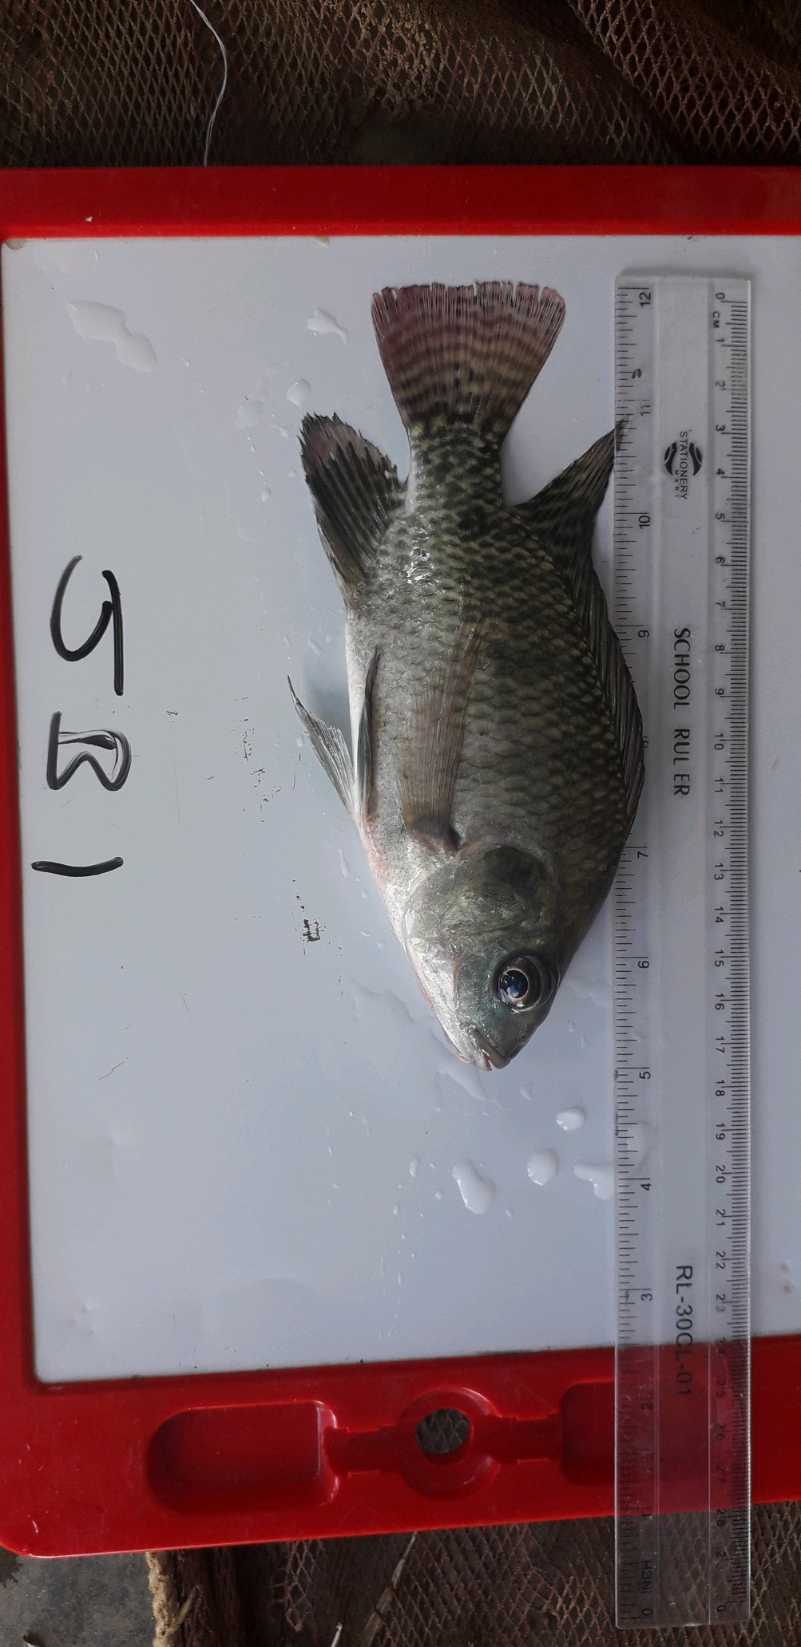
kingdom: Animalia
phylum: Chordata
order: Perciformes
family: Cichlidae
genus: Oreochromis
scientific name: Oreochromis niloticus
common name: Nile tilapia
